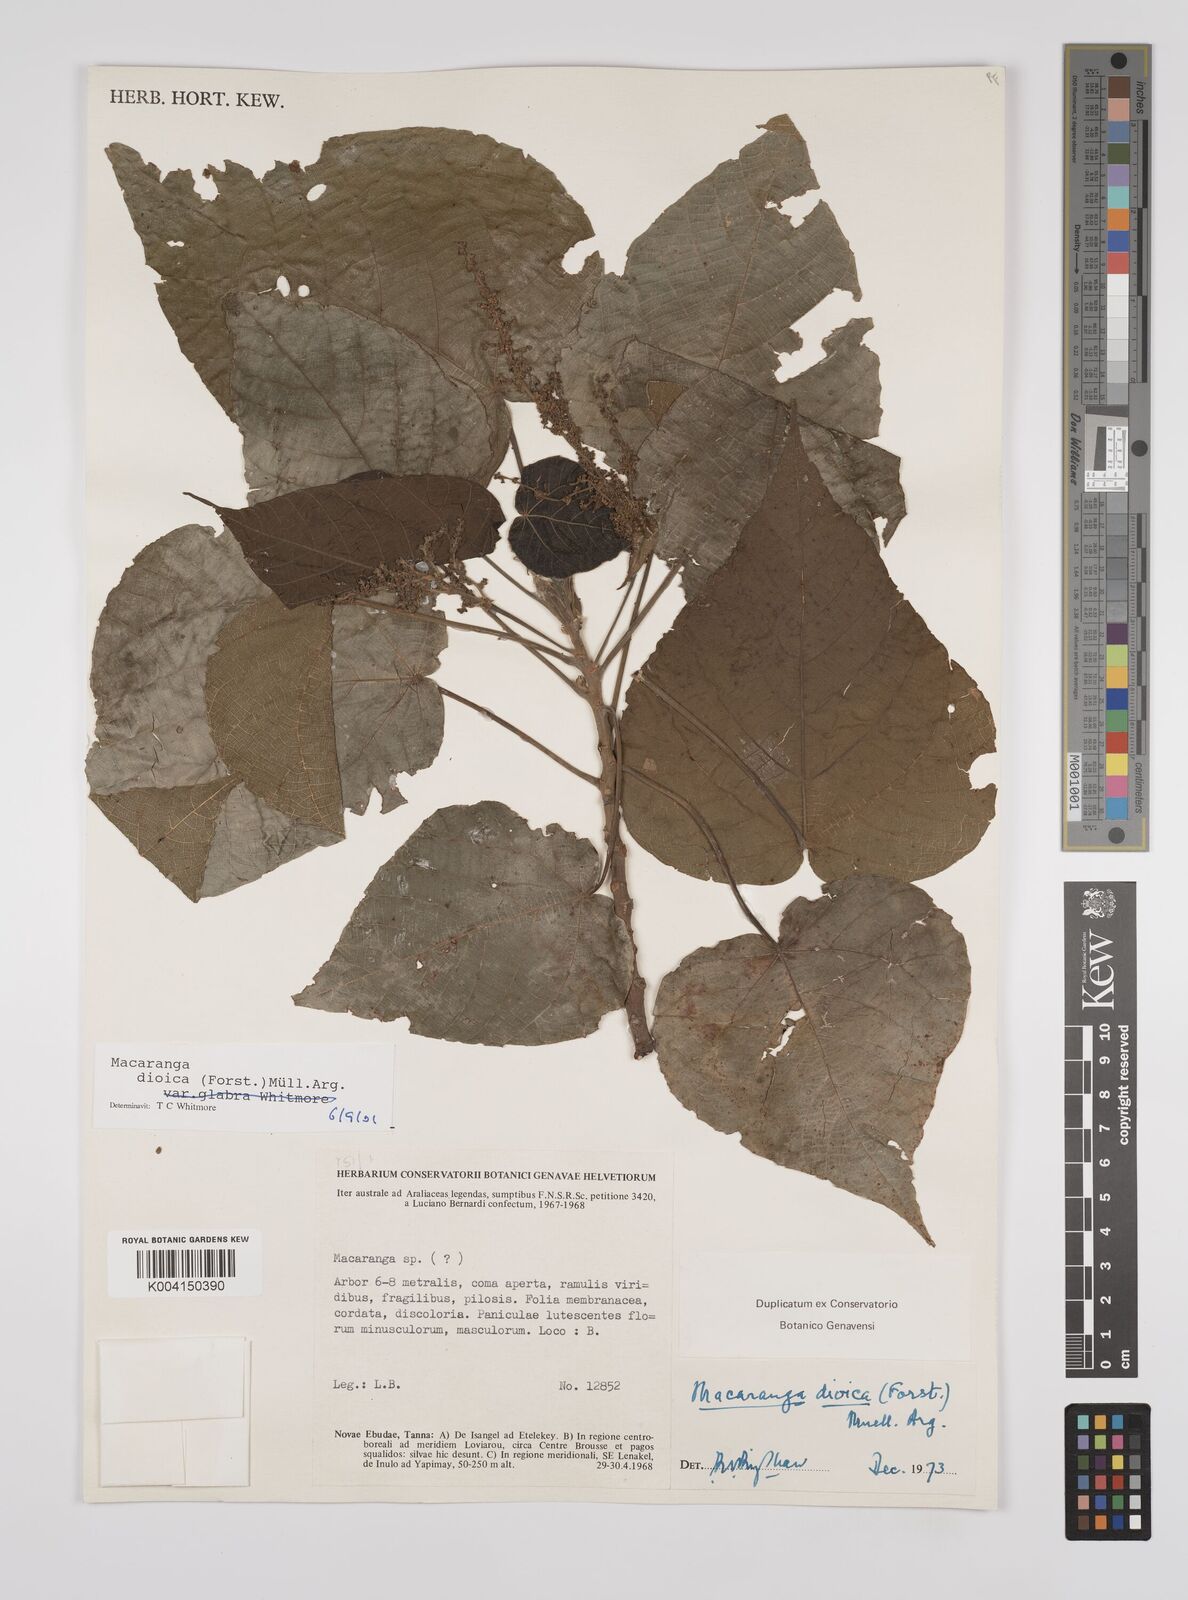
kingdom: Plantae
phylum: Tracheophyta
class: Magnoliopsida
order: Malpighiales
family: Euphorbiaceae
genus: Macaranga
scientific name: Macaranga dioica
